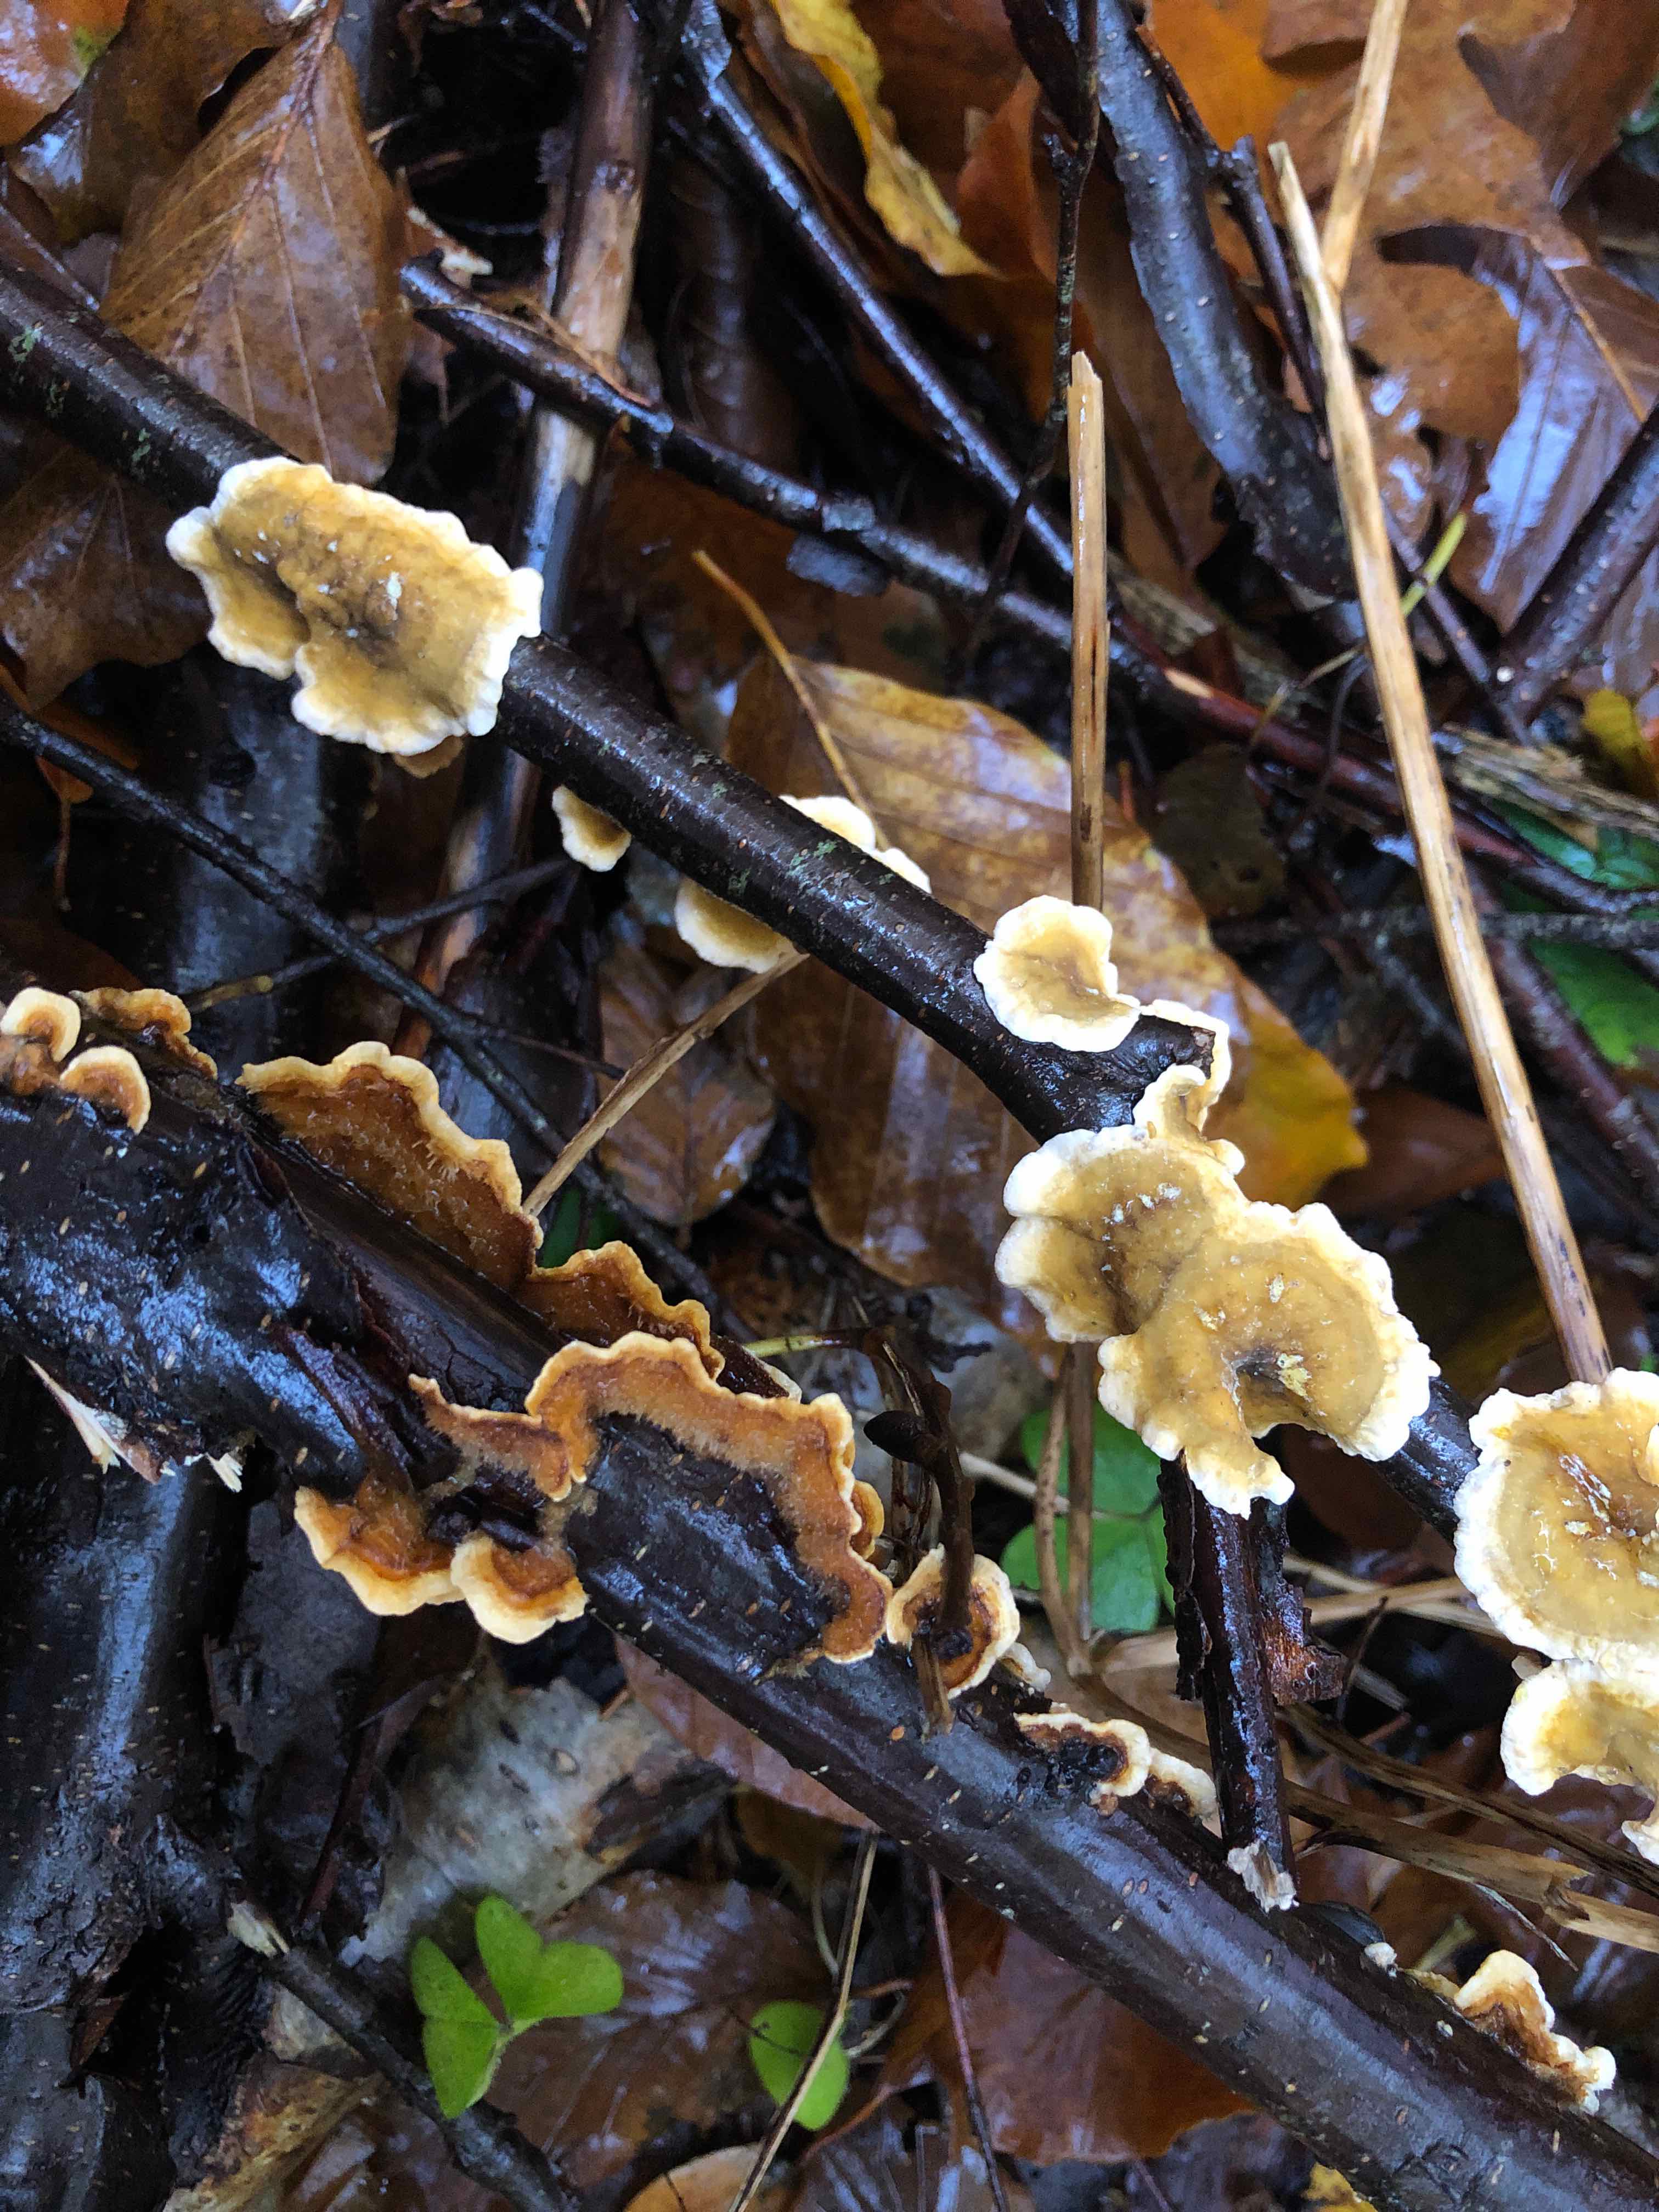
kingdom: Fungi
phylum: Basidiomycota
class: Agaricomycetes
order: Russulales
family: Stereaceae
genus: Stereum
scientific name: Stereum hirsutum
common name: håret lædersvamp
